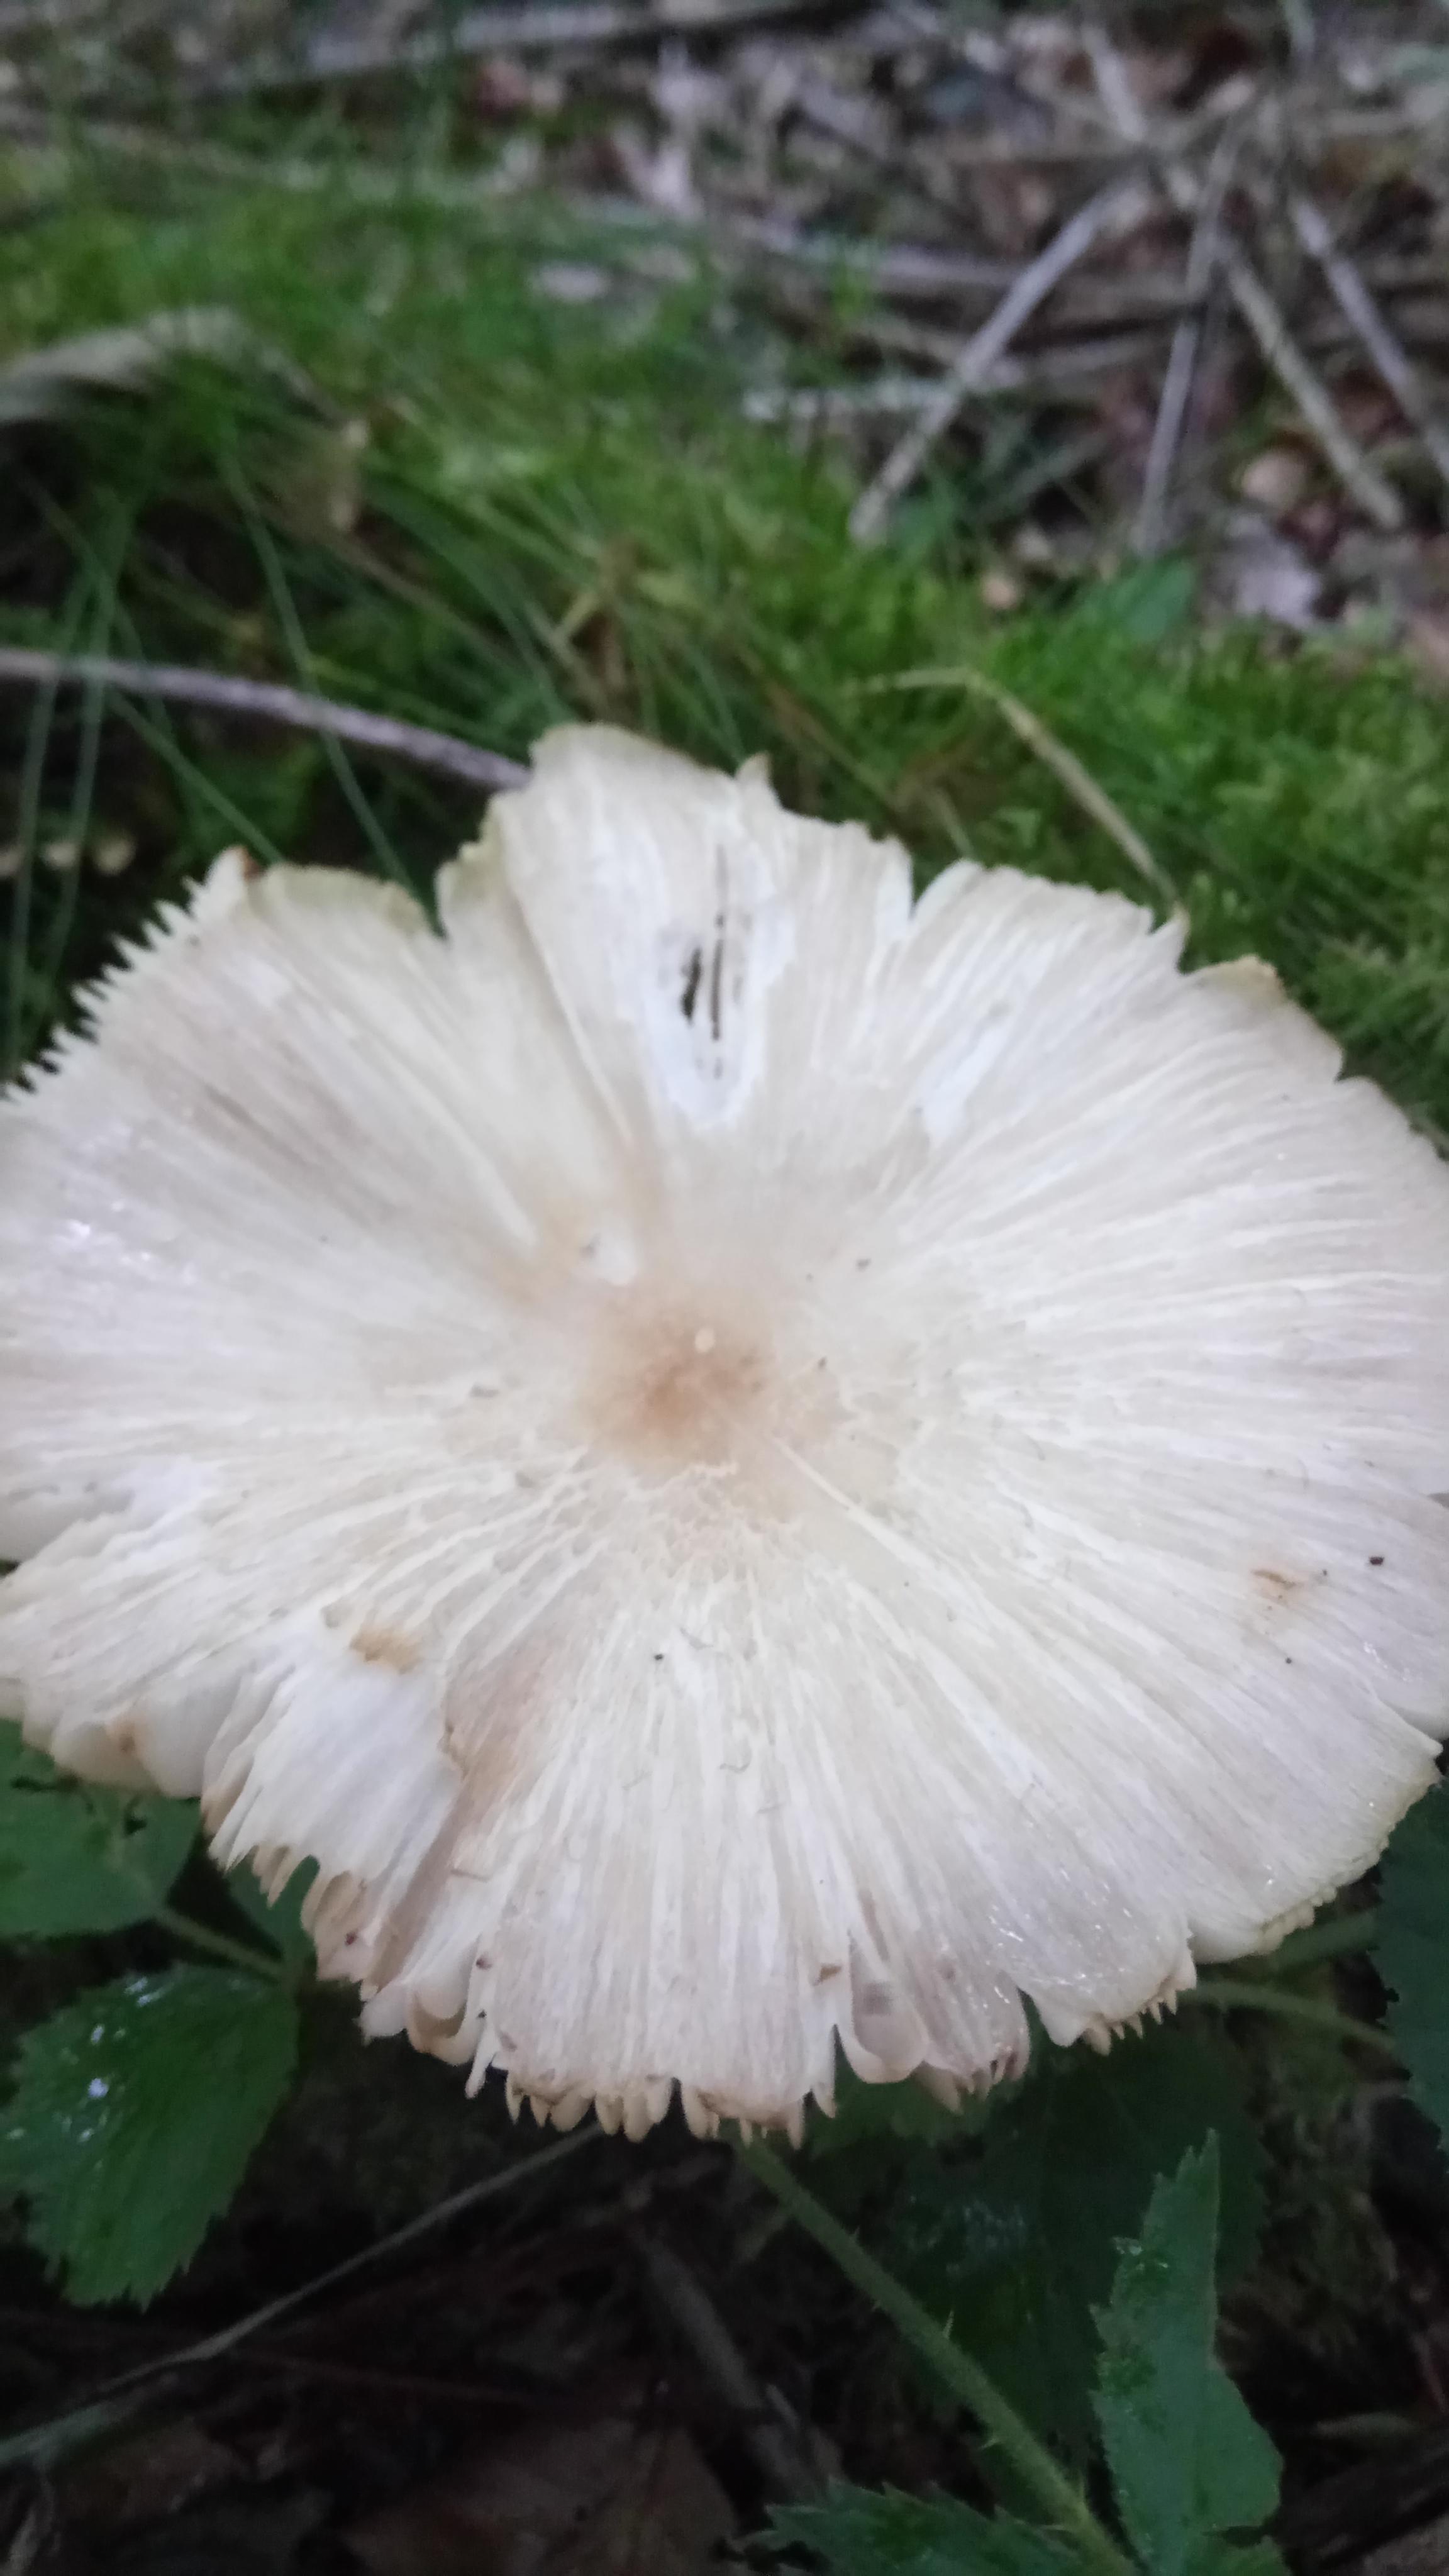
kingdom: Fungi
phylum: Basidiomycota
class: Agaricomycetes
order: Agaricales
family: Tricholomataceae
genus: Megacollybia
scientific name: Megacollybia platyphylla
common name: bredbladet væbnerhat
